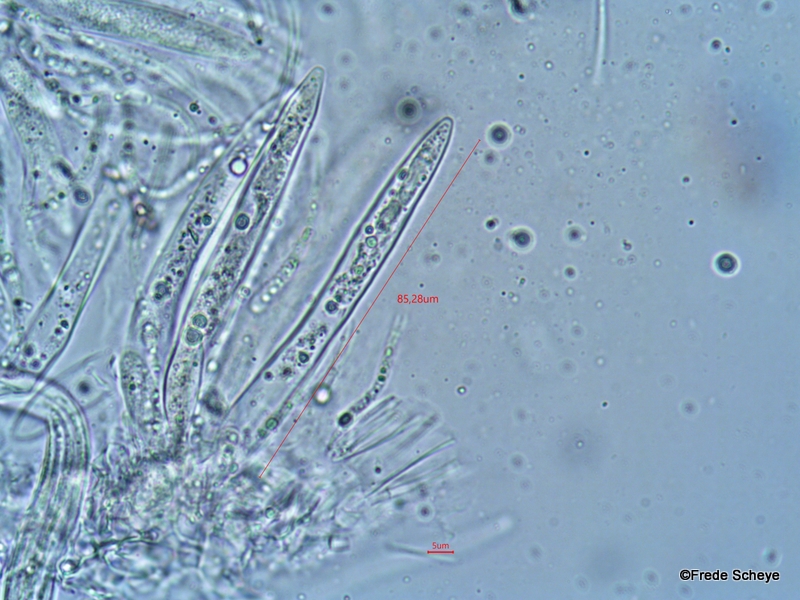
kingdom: Fungi
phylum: Ascomycota
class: Leotiomycetes
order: Rhytismatales
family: Rhytismataceae
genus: Lophodermium
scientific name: Lophodermium pinastri
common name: fyrre-fureplet
